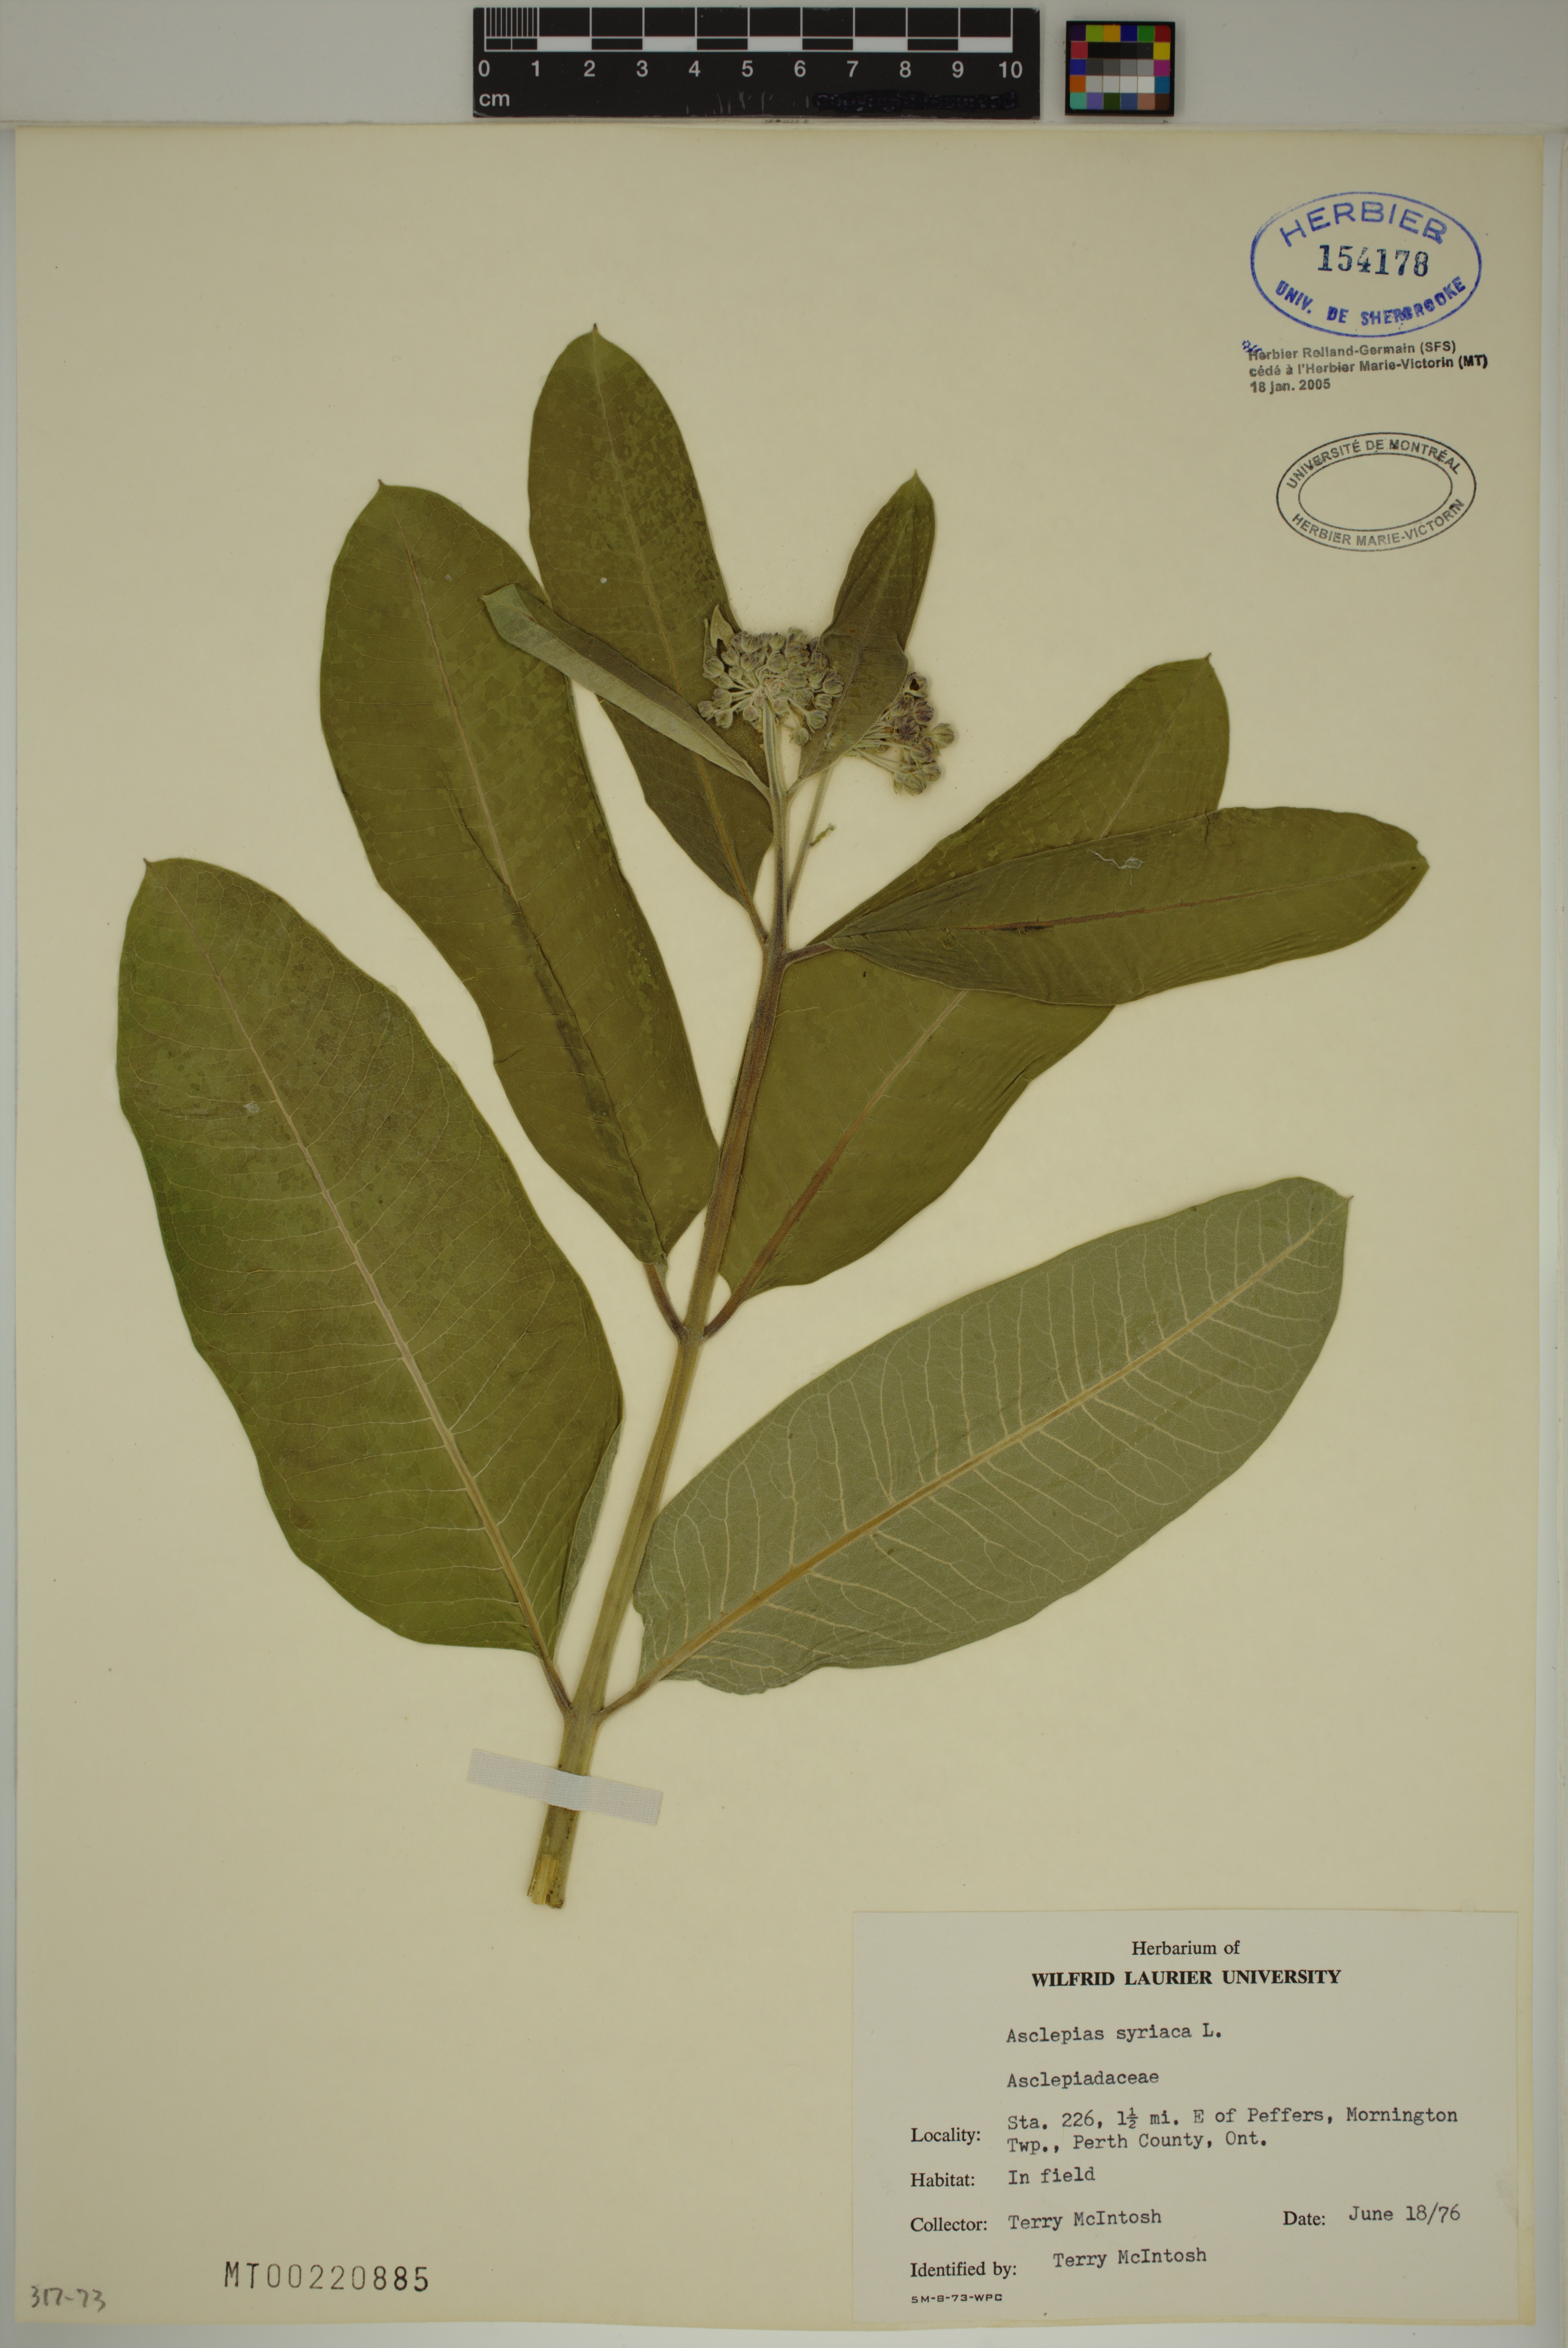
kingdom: Plantae
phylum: Tracheophyta
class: Magnoliopsida
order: Gentianales
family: Apocynaceae
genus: Asclepias
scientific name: Asclepias syriaca
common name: Common milkweed
